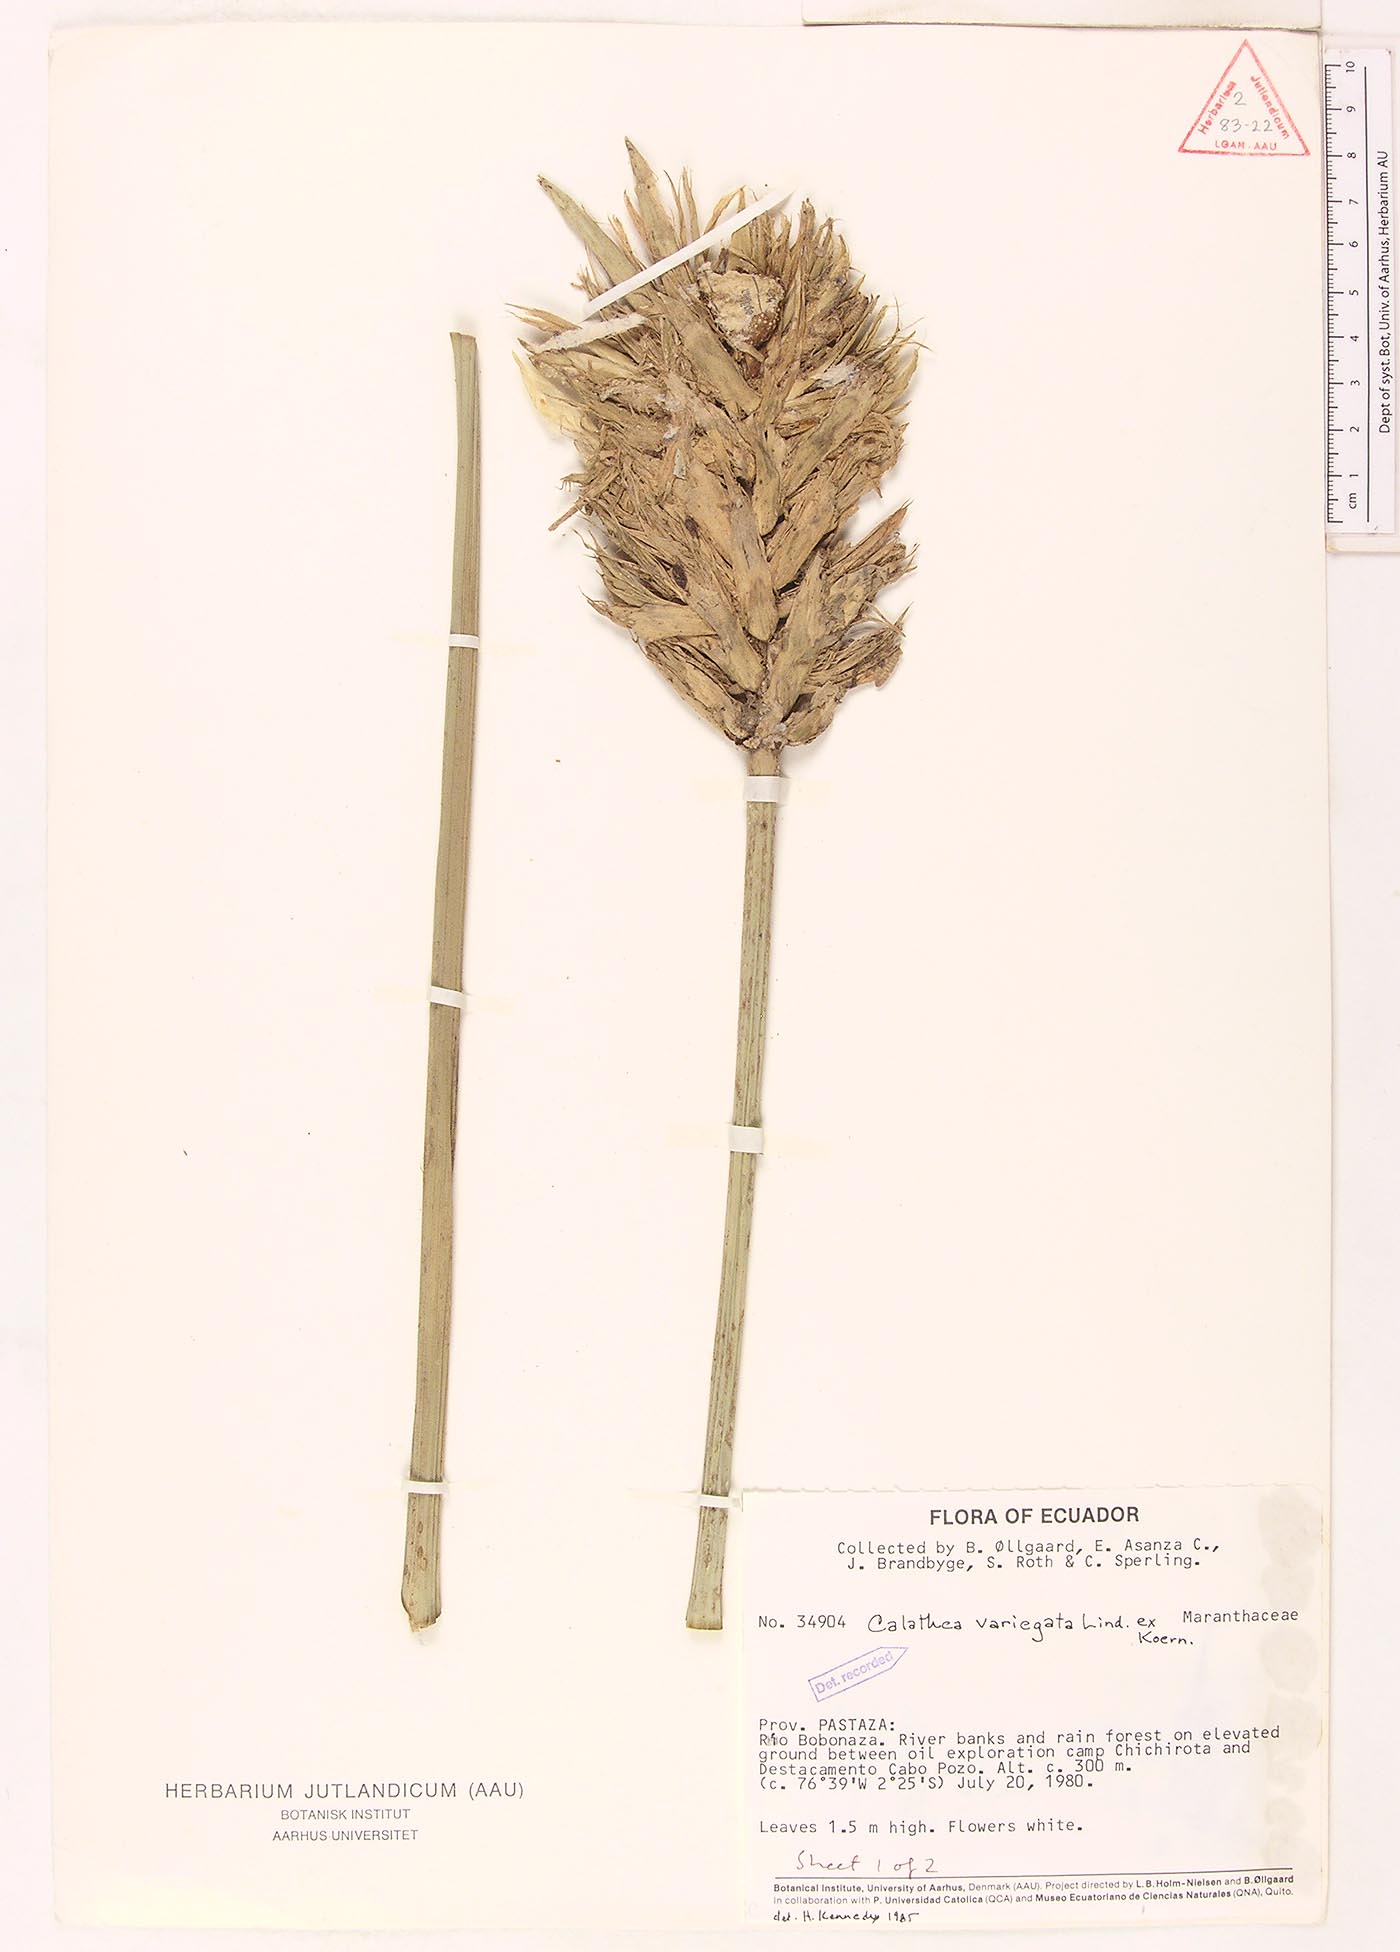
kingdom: Plantae
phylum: Tracheophyta
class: Liliopsida
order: Zingiberales
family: Marantaceae
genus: Goeppertia
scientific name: Goeppertia variegata
